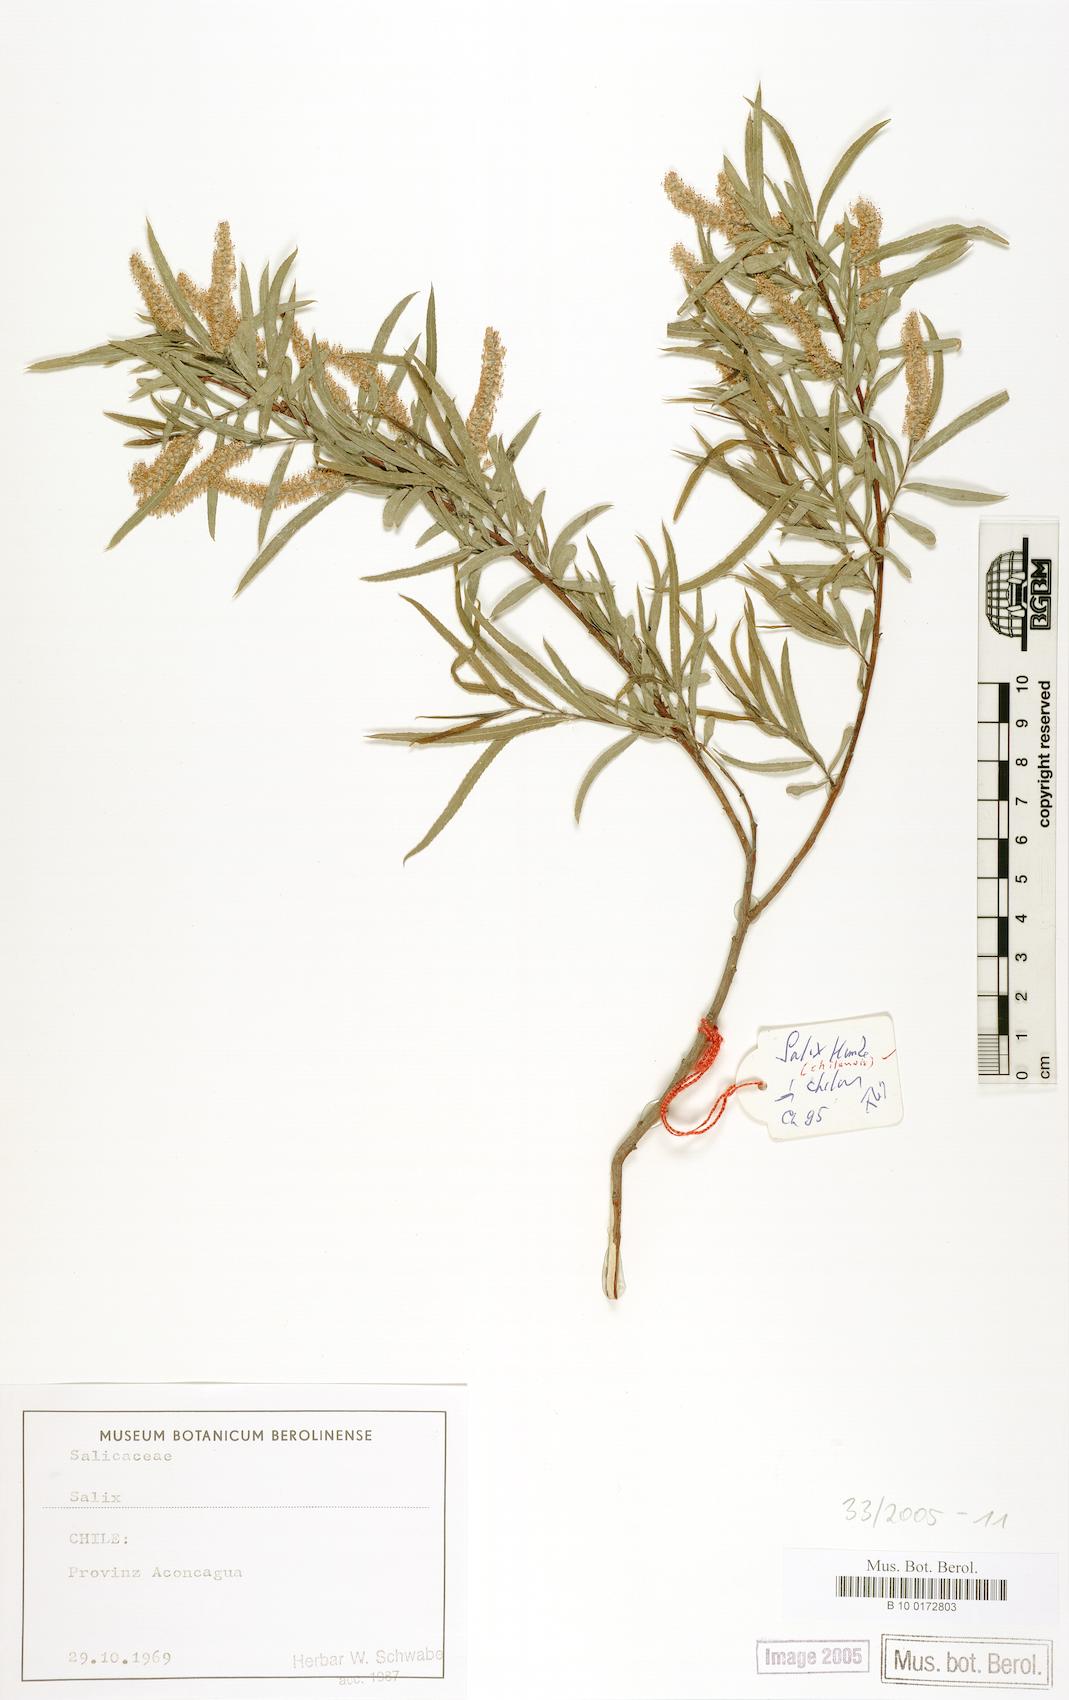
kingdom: Plantae
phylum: Tracheophyta
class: Magnoliopsida
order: Malpighiales
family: Salicaceae
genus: Salix
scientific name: Salix humboldtiana
